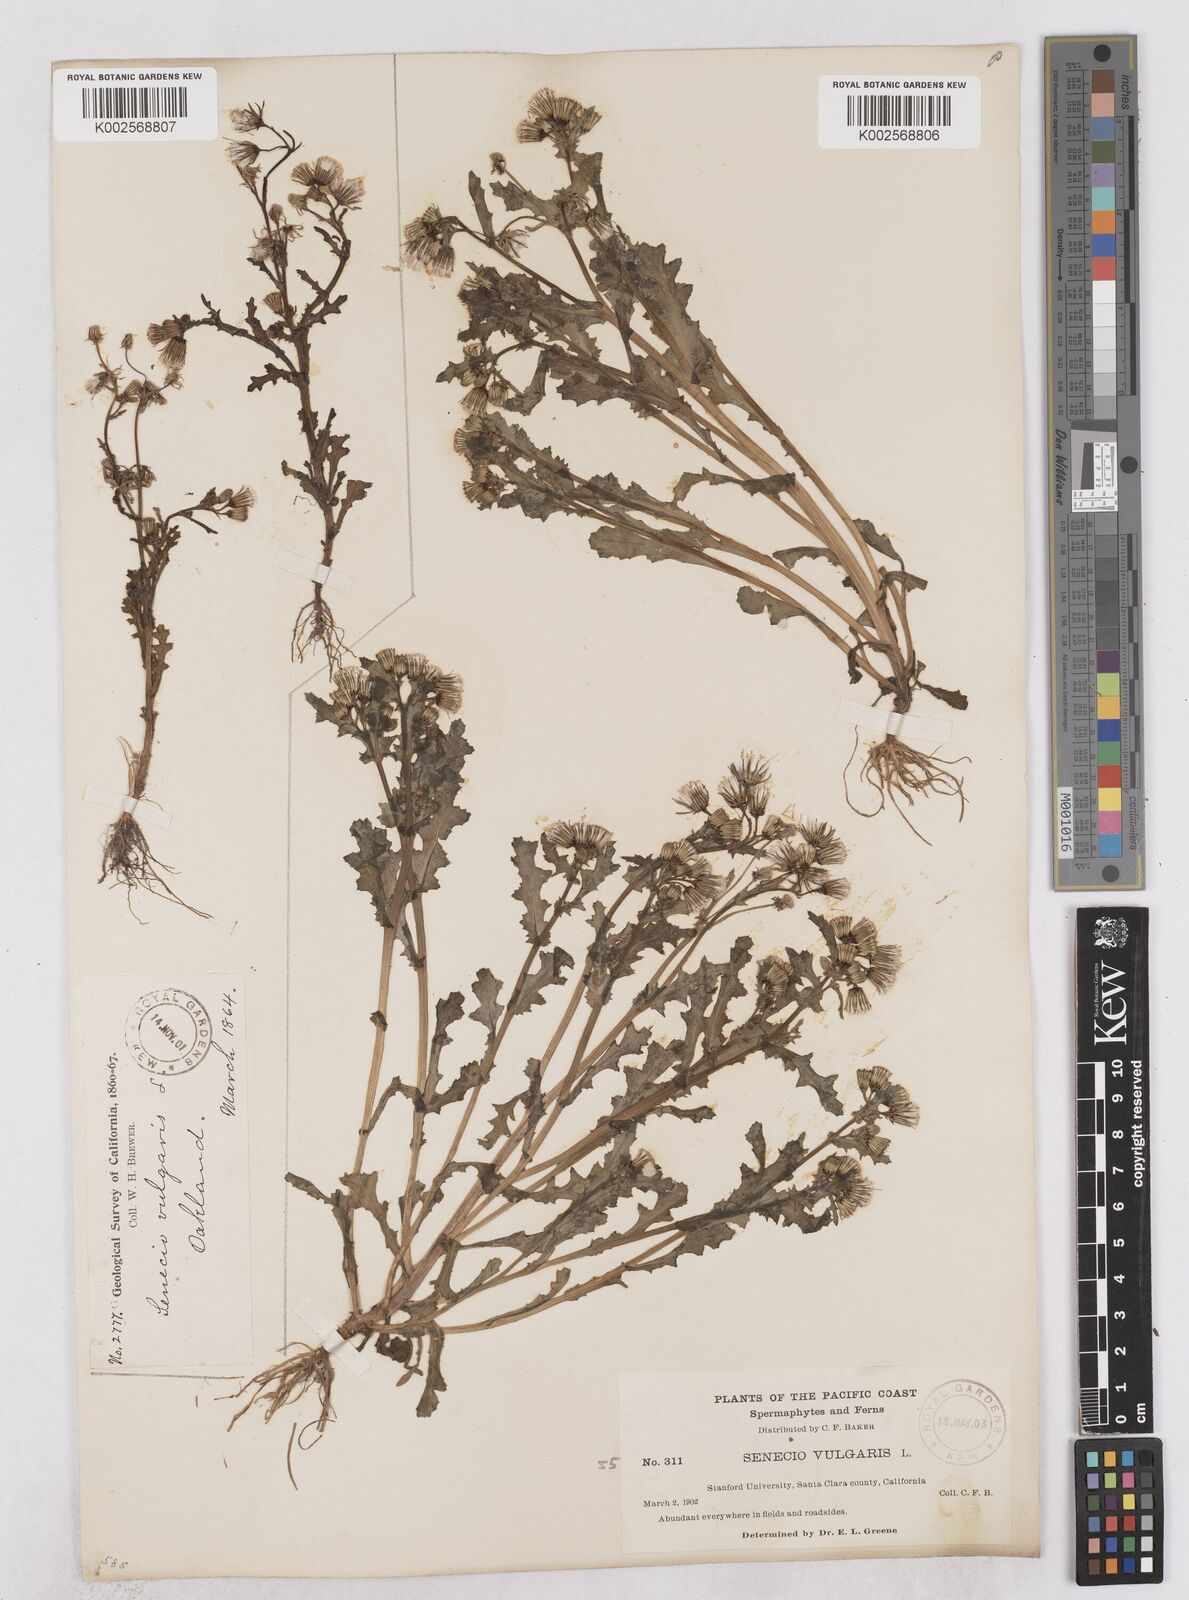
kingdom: Plantae
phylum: Tracheophyta
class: Magnoliopsida
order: Asterales
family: Asteraceae
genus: Senecio
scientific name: Senecio vulgaris
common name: Old-man-in-the-spring
